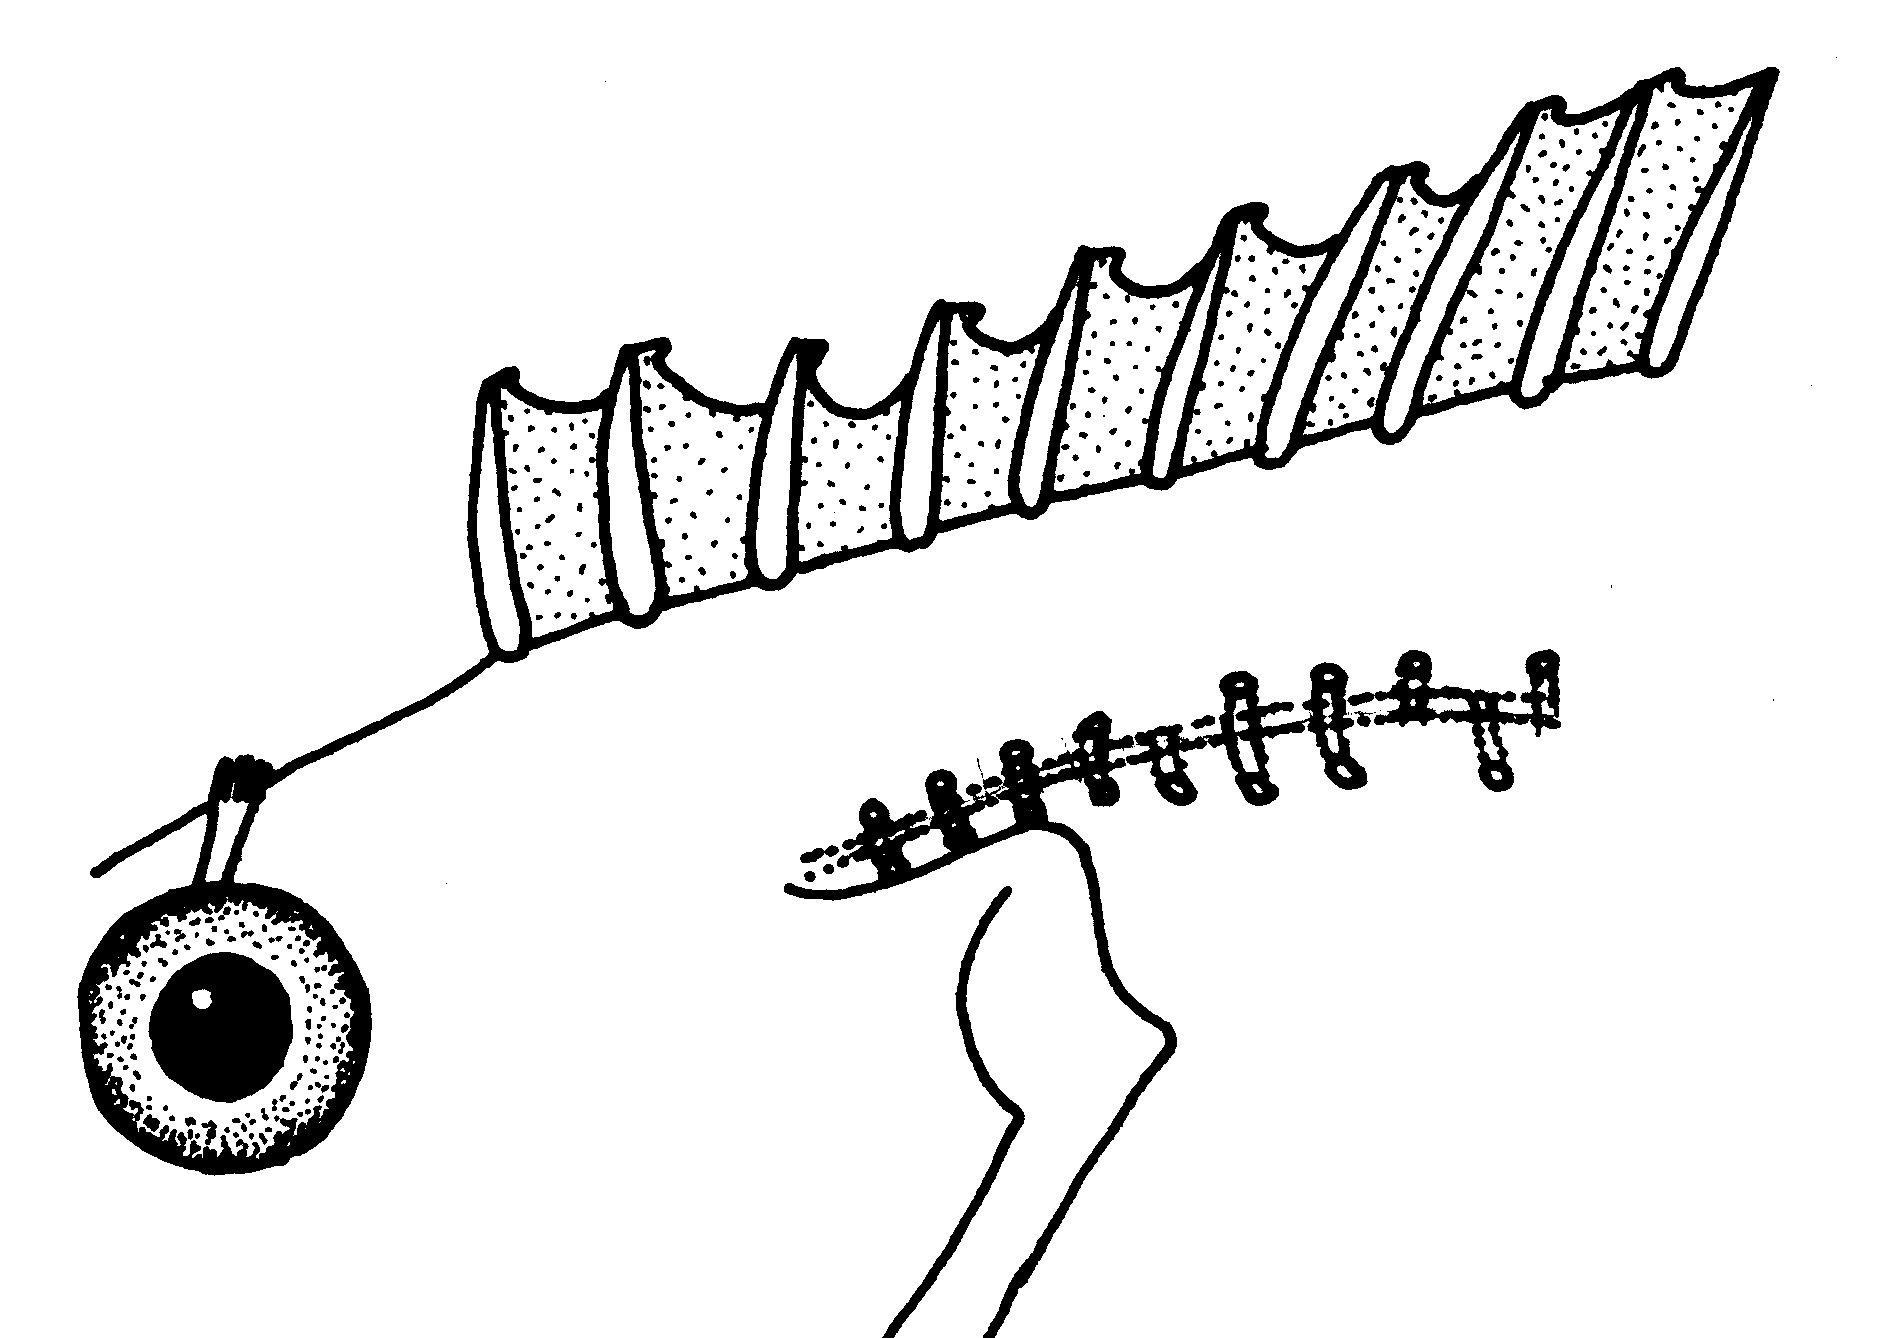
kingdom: Animalia
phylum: Chordata
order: Perciformes
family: Clinidae
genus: Clinus
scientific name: Clinus berrisfordi
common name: Onrust klipfish
